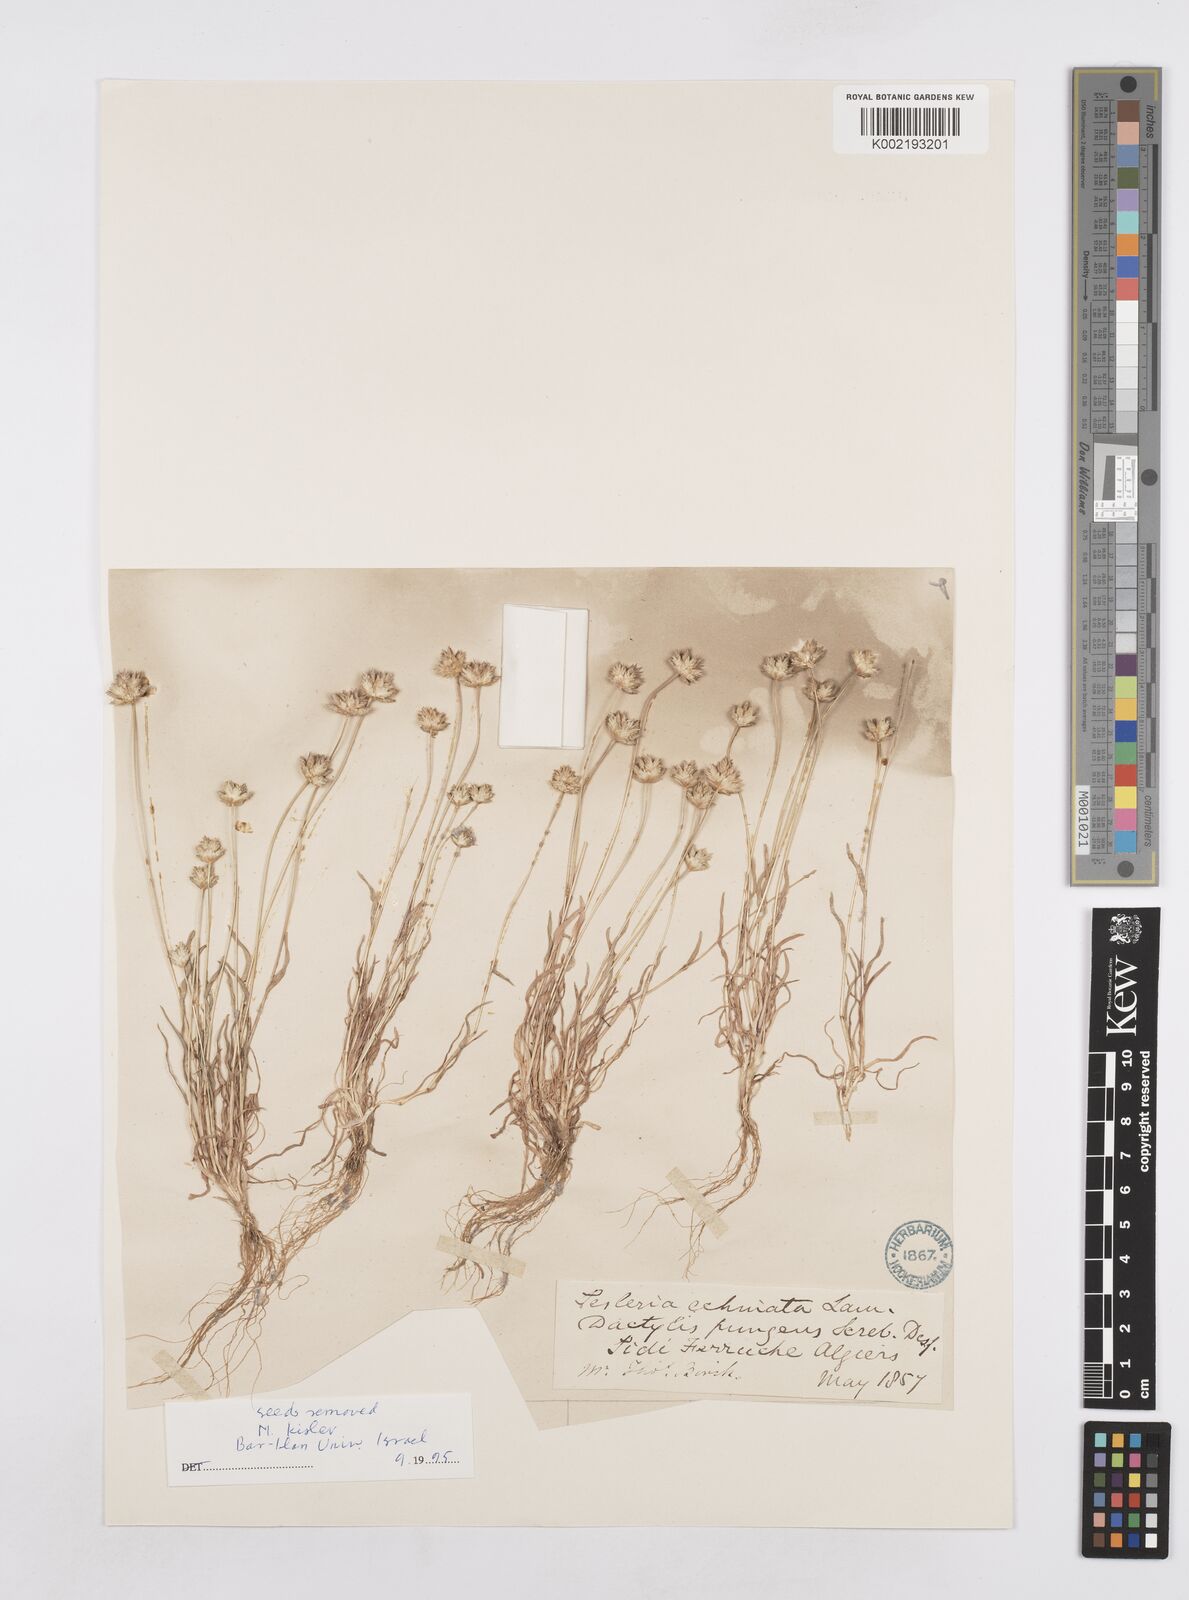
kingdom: Plantae
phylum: Tracheophyta
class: Liliopsida
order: Poales
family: Poaceae
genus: Ammochloa
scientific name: Ammochloa pungens
